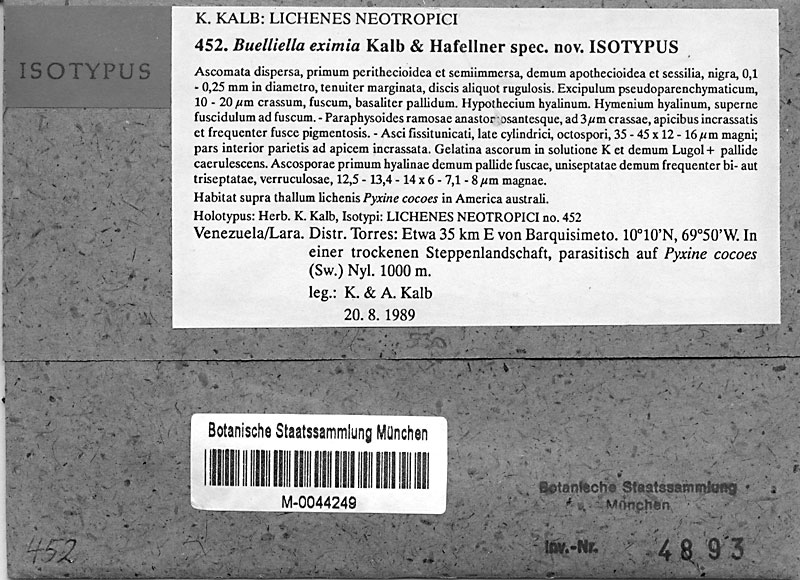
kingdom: Fungi
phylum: Ascomycota
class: Lecanoromycetes
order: Caliciales
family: Caliciaceae
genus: Pyxine
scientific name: Pyxine cocoes
